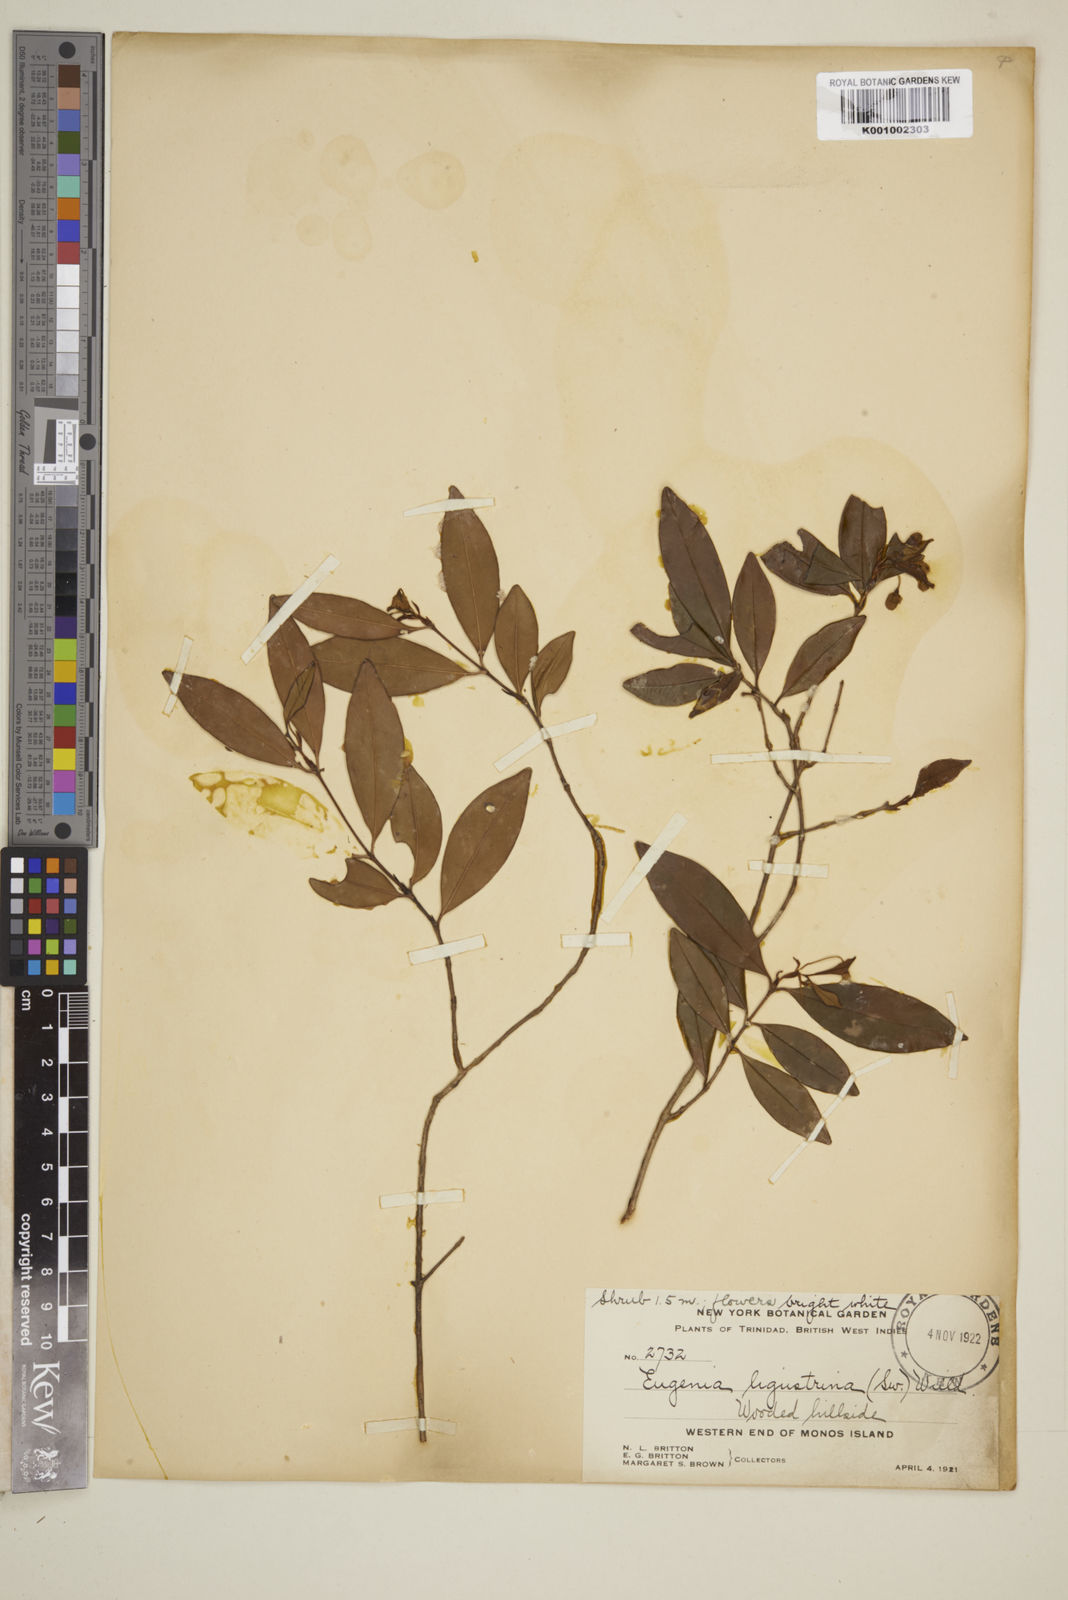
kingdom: Plantae
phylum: Tracheophyta
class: Magnoliopsida
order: Myrtales
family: Myrtaceae
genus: Eugenia
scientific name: Eugenia ligustrina
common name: Privet stopper
